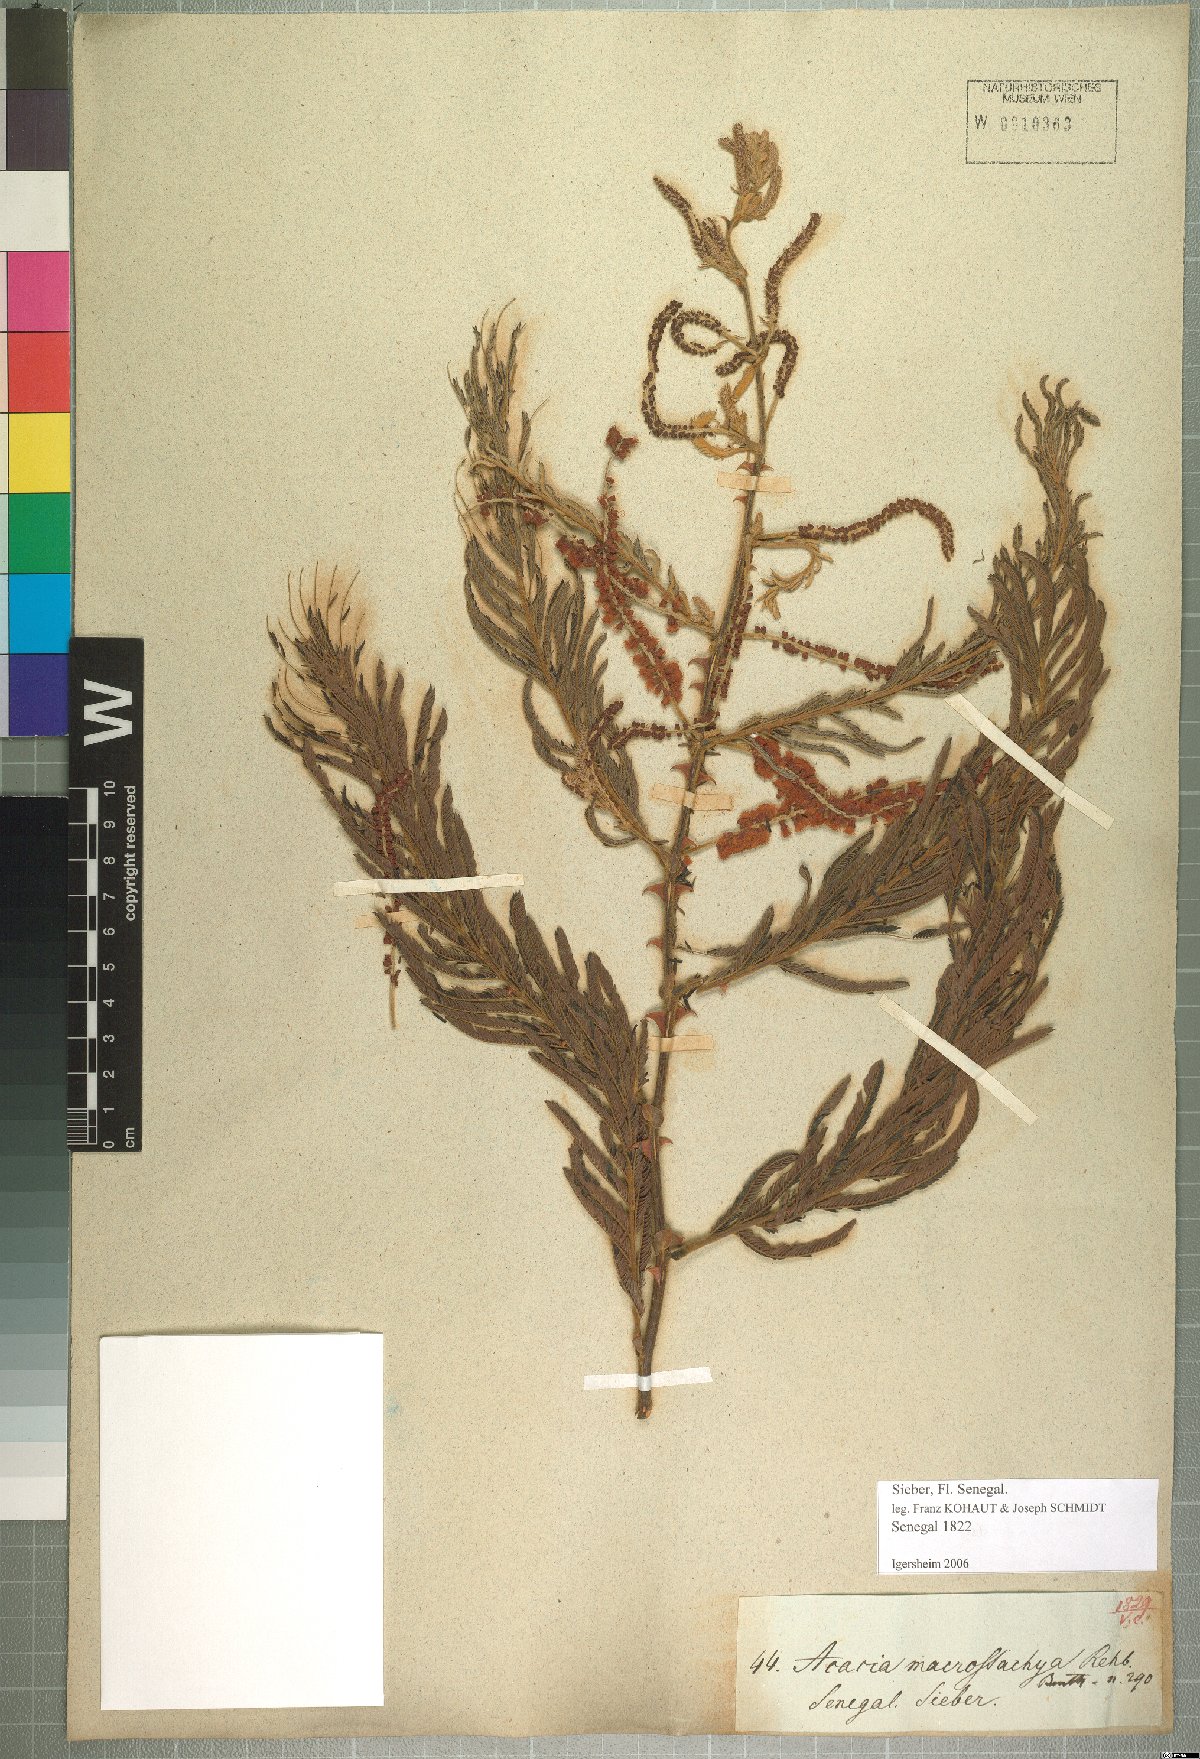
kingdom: Plantae
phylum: Tracheophyta
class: Magnoliopsida
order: Fabales
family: Fabaceae
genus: Senegalia
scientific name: Senegalia macrostachya
